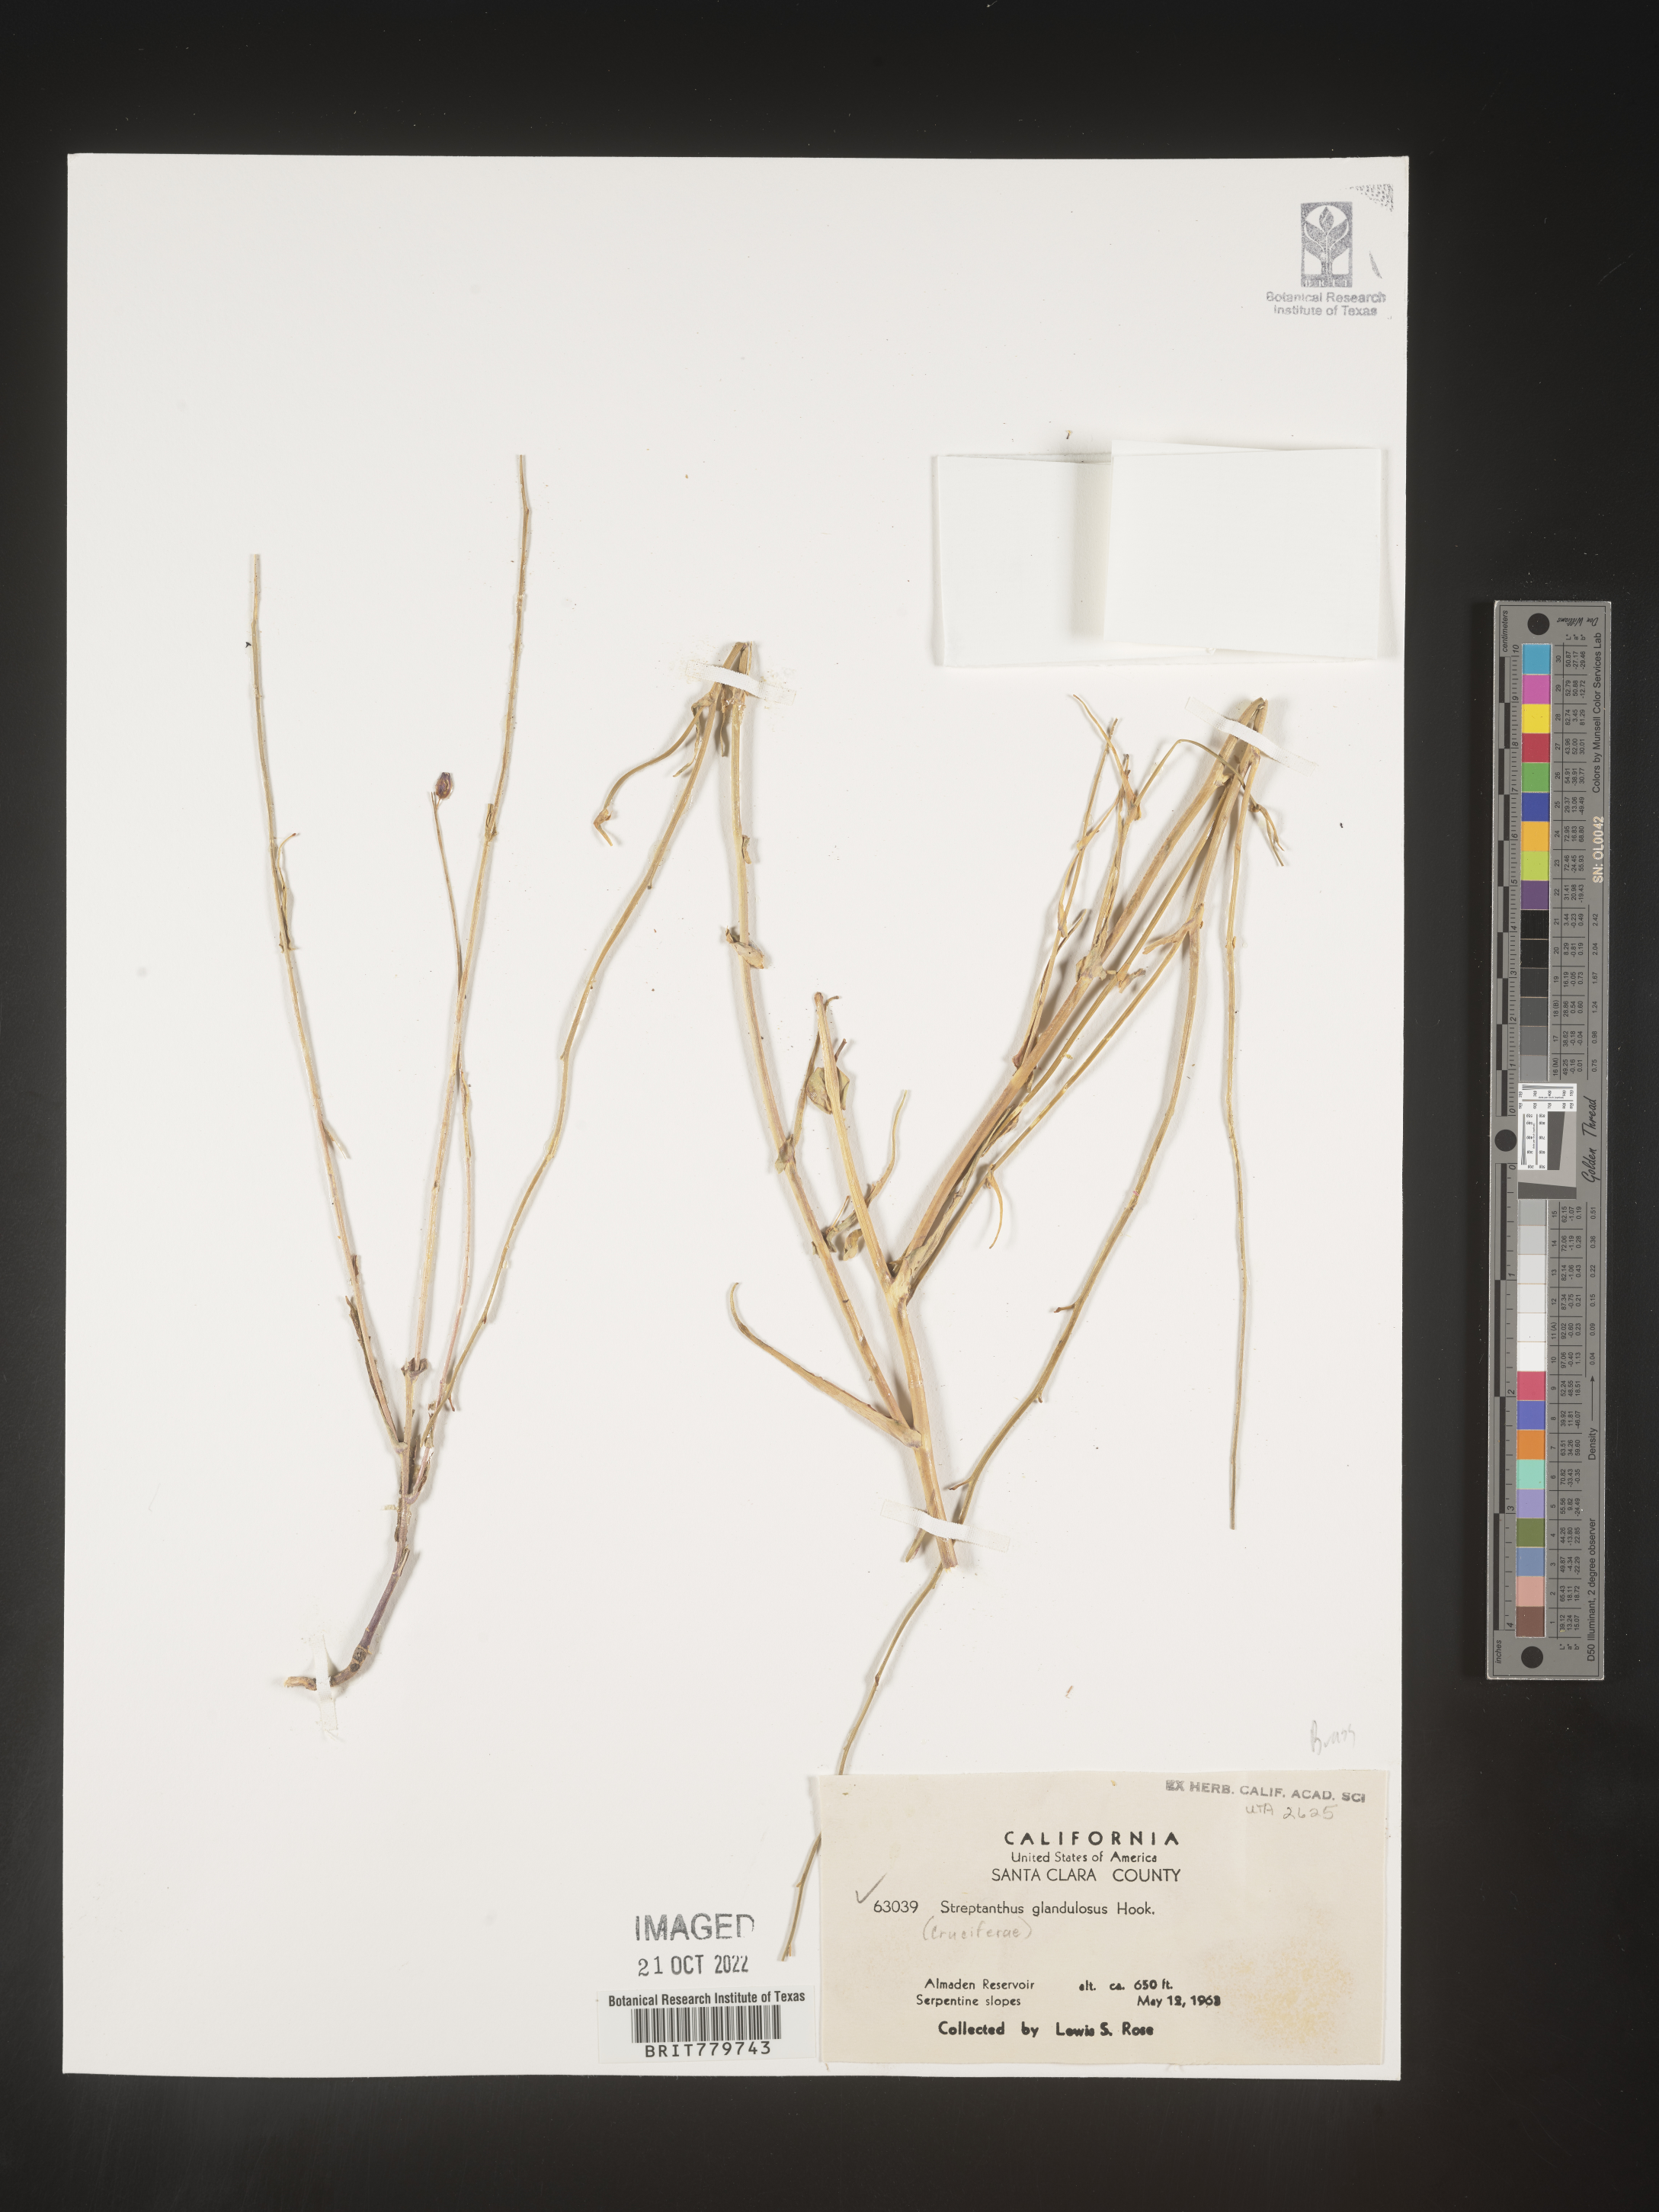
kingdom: Plantae
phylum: Tracheophyta
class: Magnoliopsida
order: Brassicales
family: Brassicaceae
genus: Streptanthus
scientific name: Streptanthus
